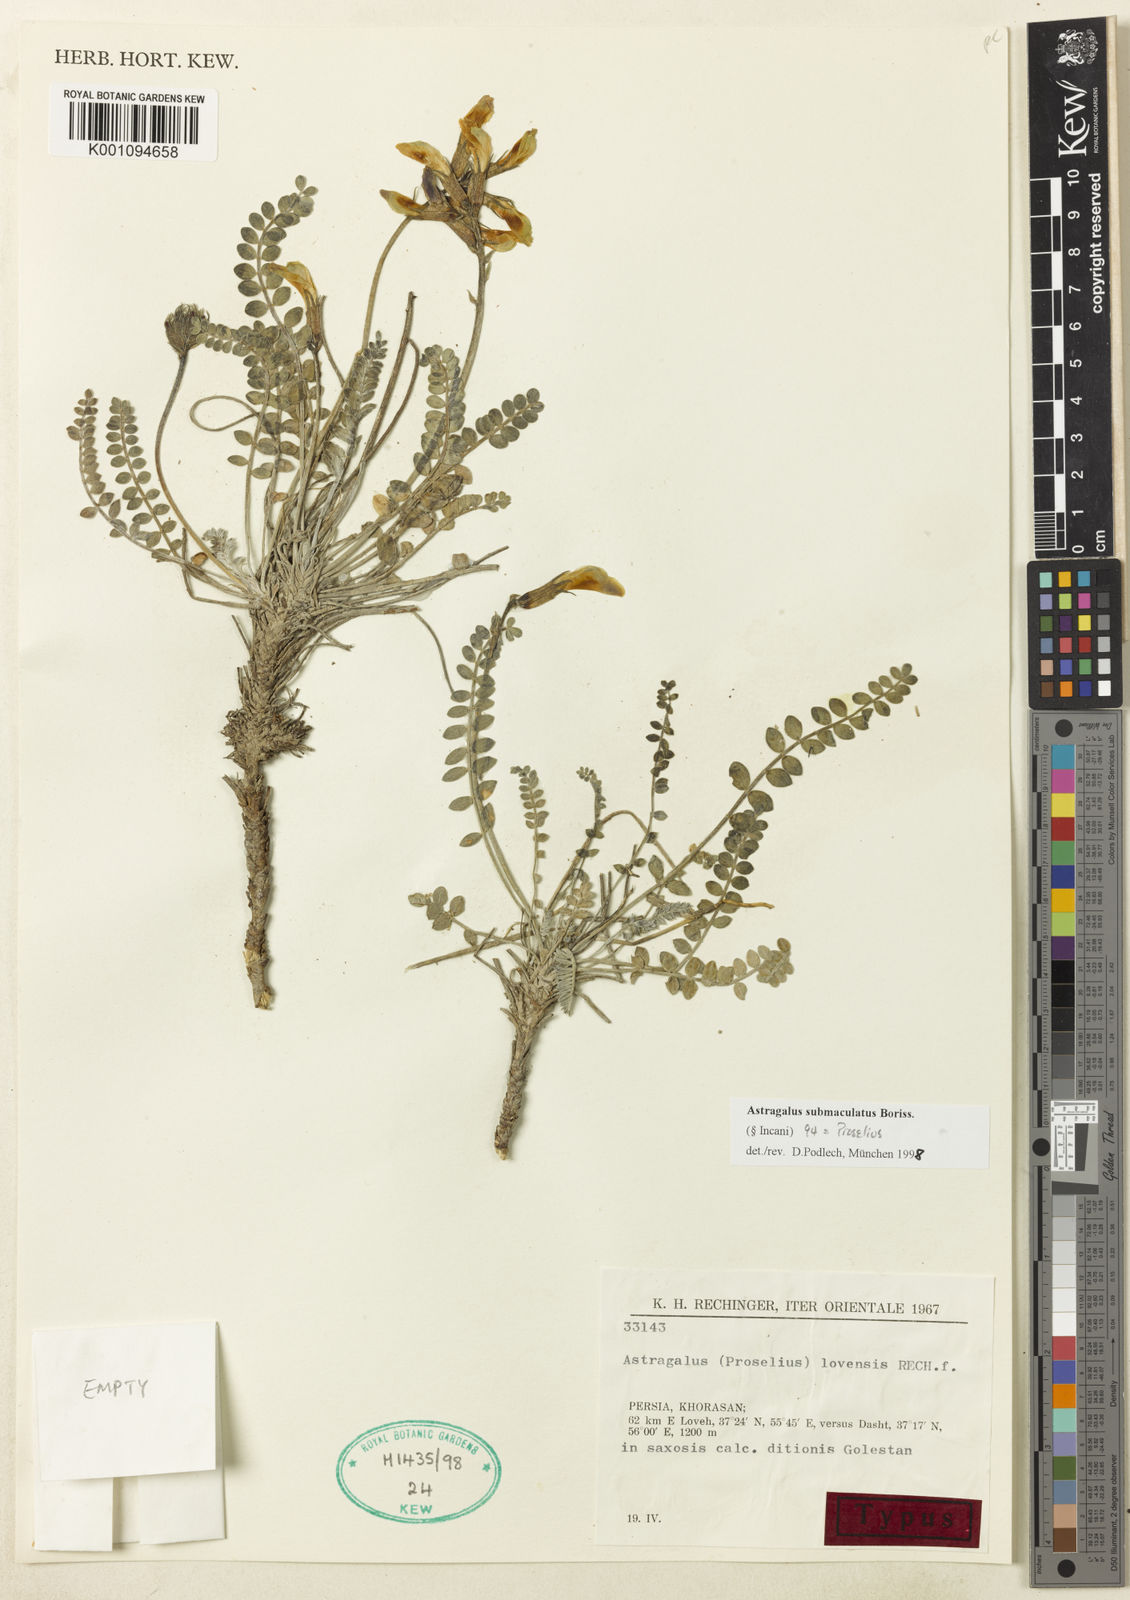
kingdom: Plantae
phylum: Tracheophyta
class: Magnoliopsida
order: Fabales
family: Fabaceae
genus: Astragalus
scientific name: Astragalus
